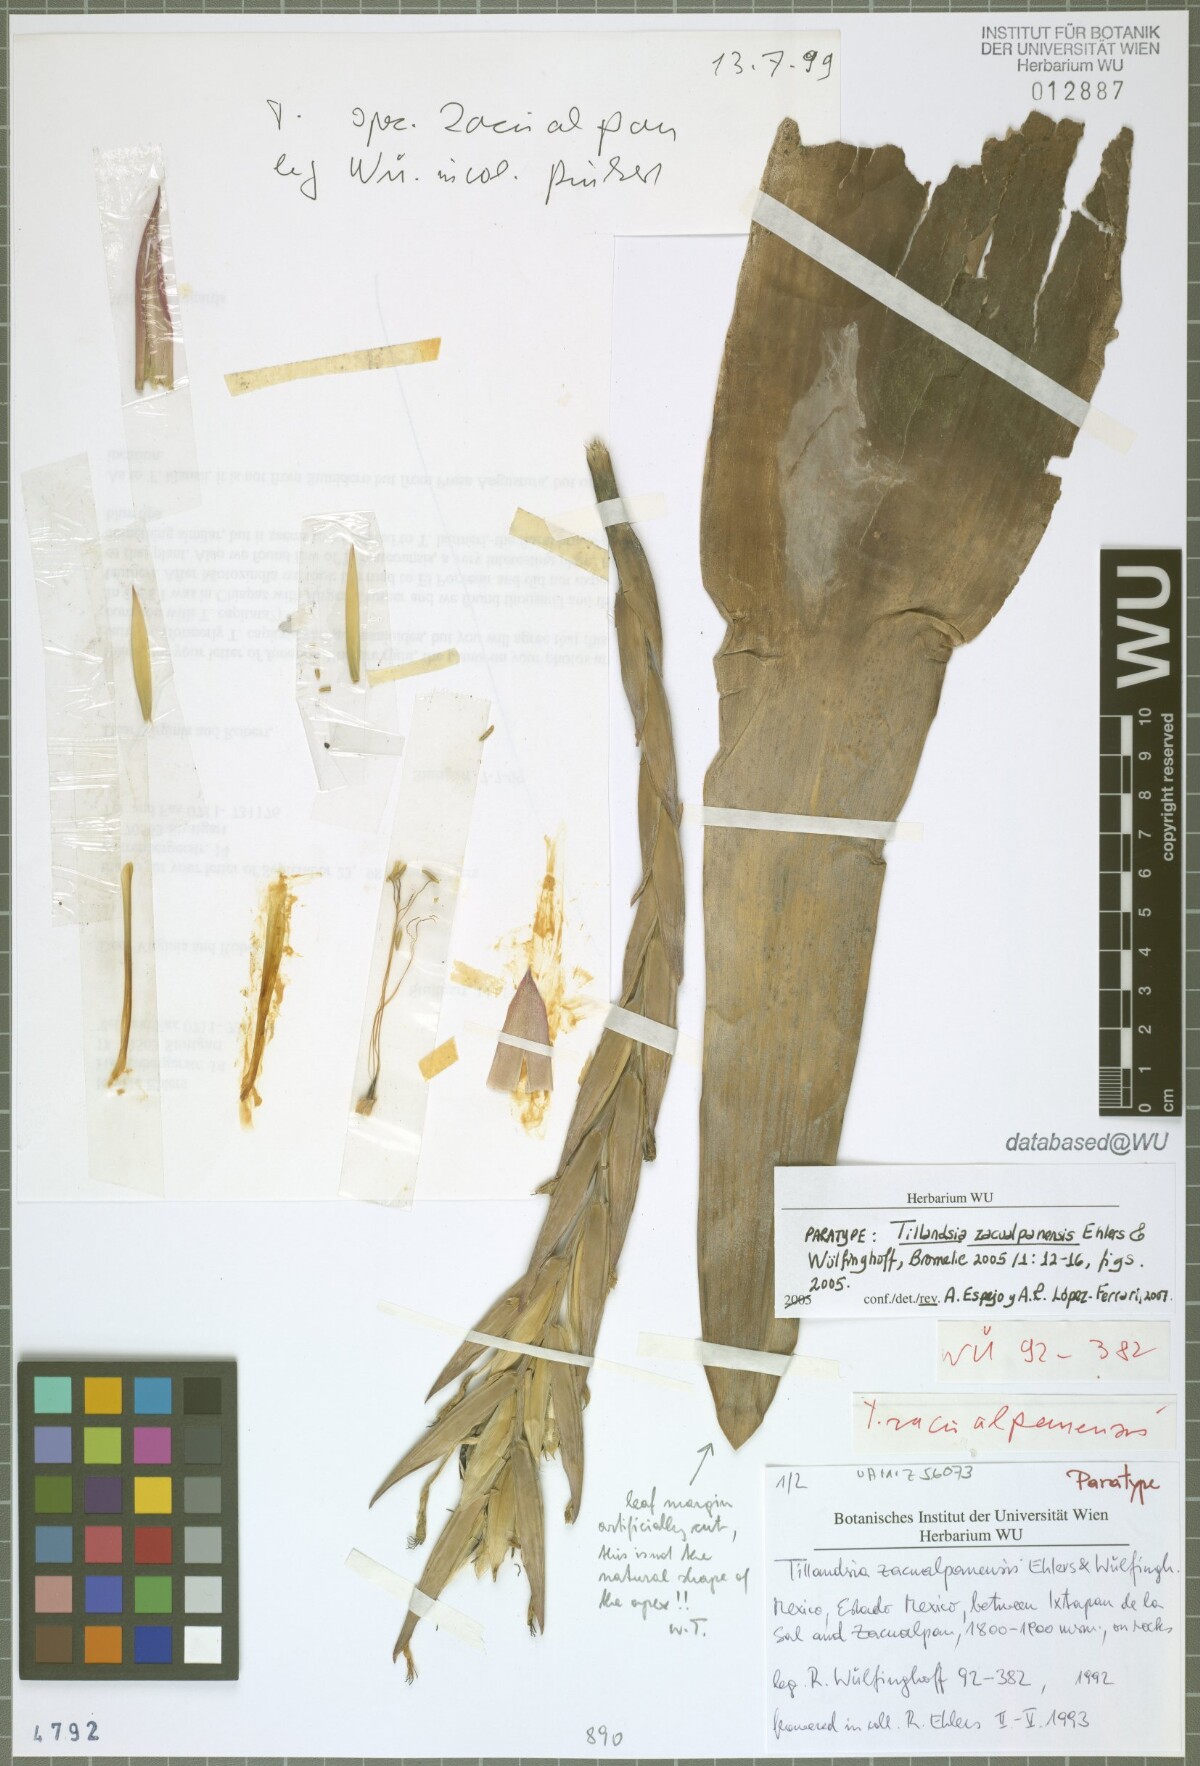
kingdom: Plantae
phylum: Tracheophyta
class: Liliopsida
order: Poales
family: Bromeliaceae
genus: Tillandsia
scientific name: Tillandsia zacualpanensis
